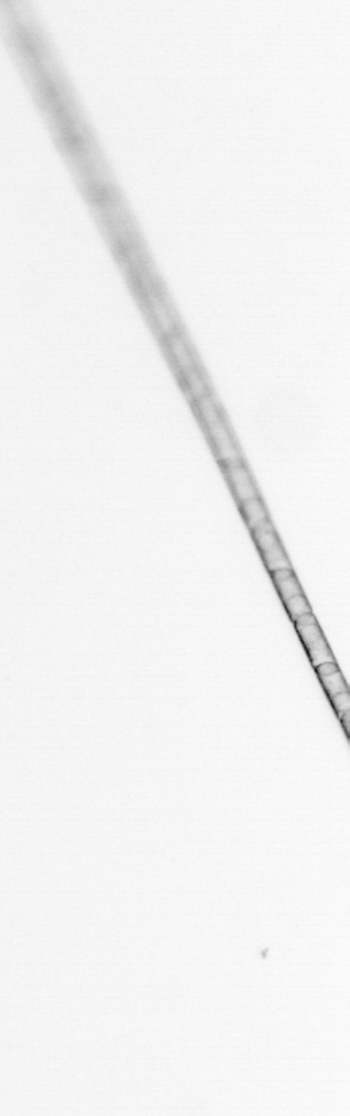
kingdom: Chromista
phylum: Ochrophyta
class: Bacillariophyceae
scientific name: Bacillariophyceae
